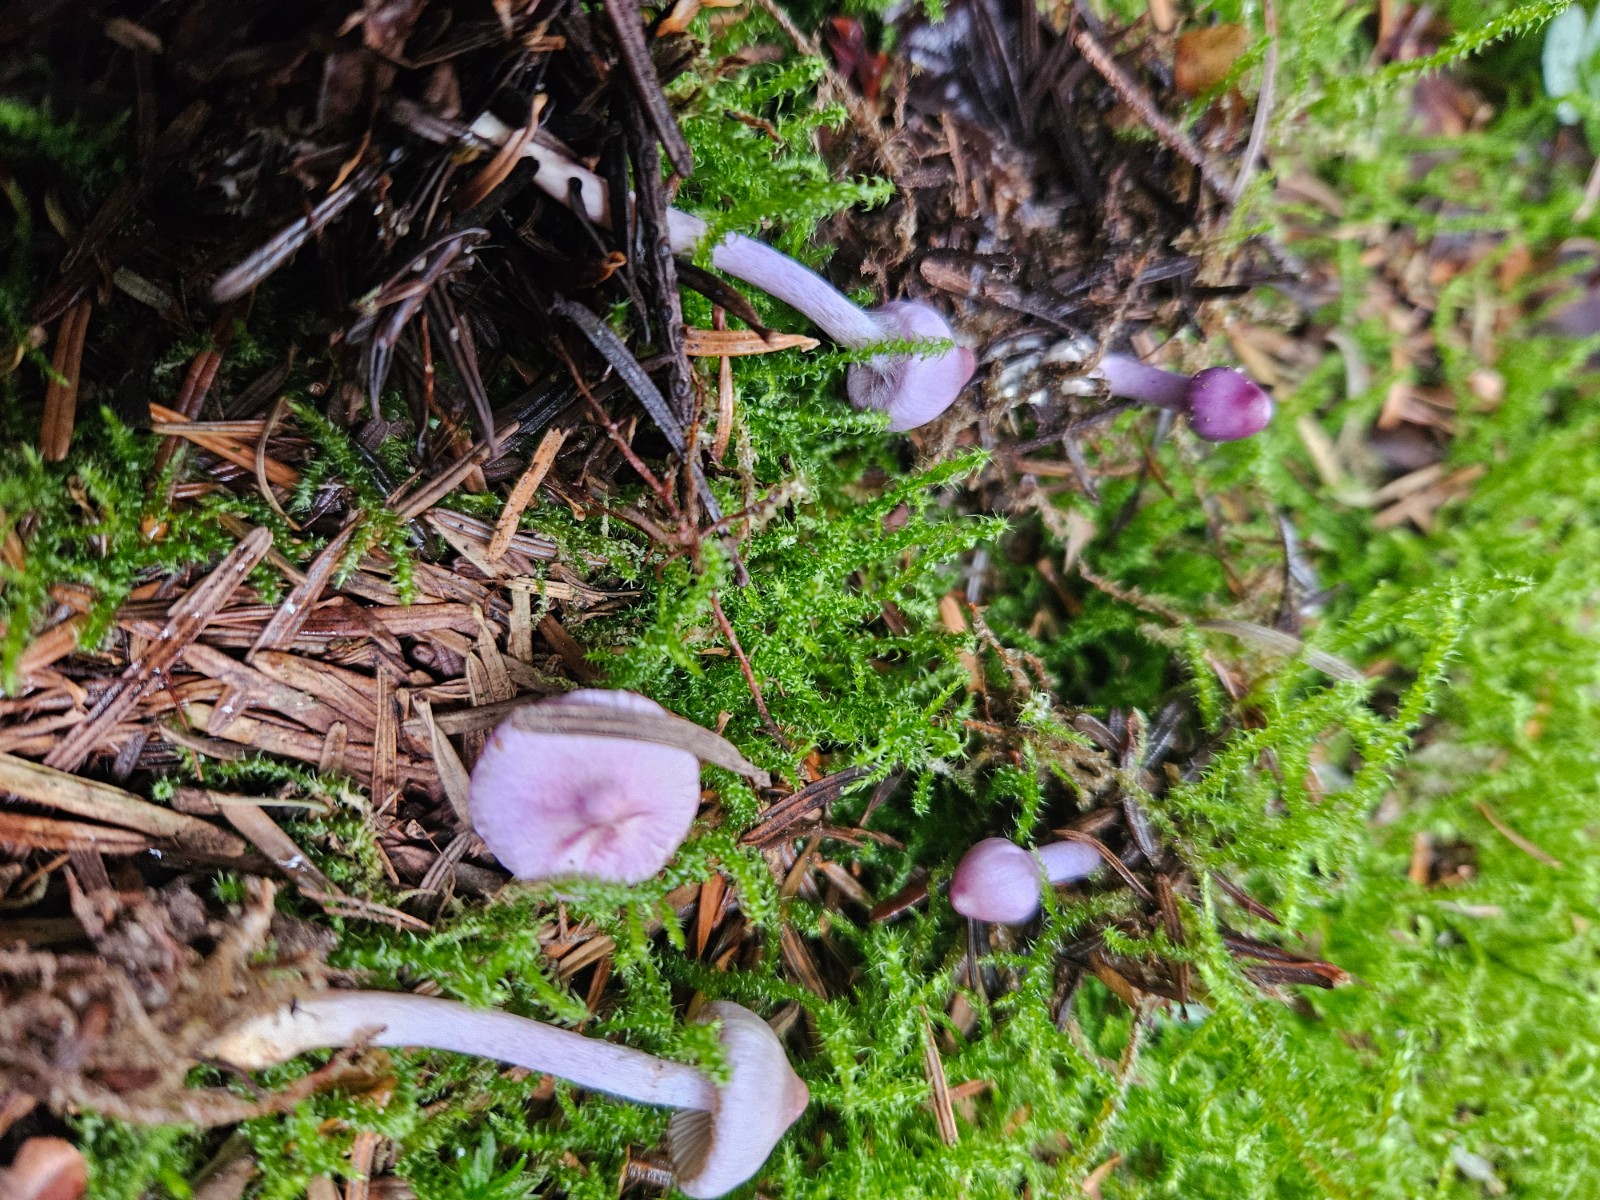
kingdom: Fungi
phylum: Basidiomycota
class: Agaricomycetes
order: Agaricales
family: Inocybaceae
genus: Inocybe
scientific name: Inocybe geophylla
